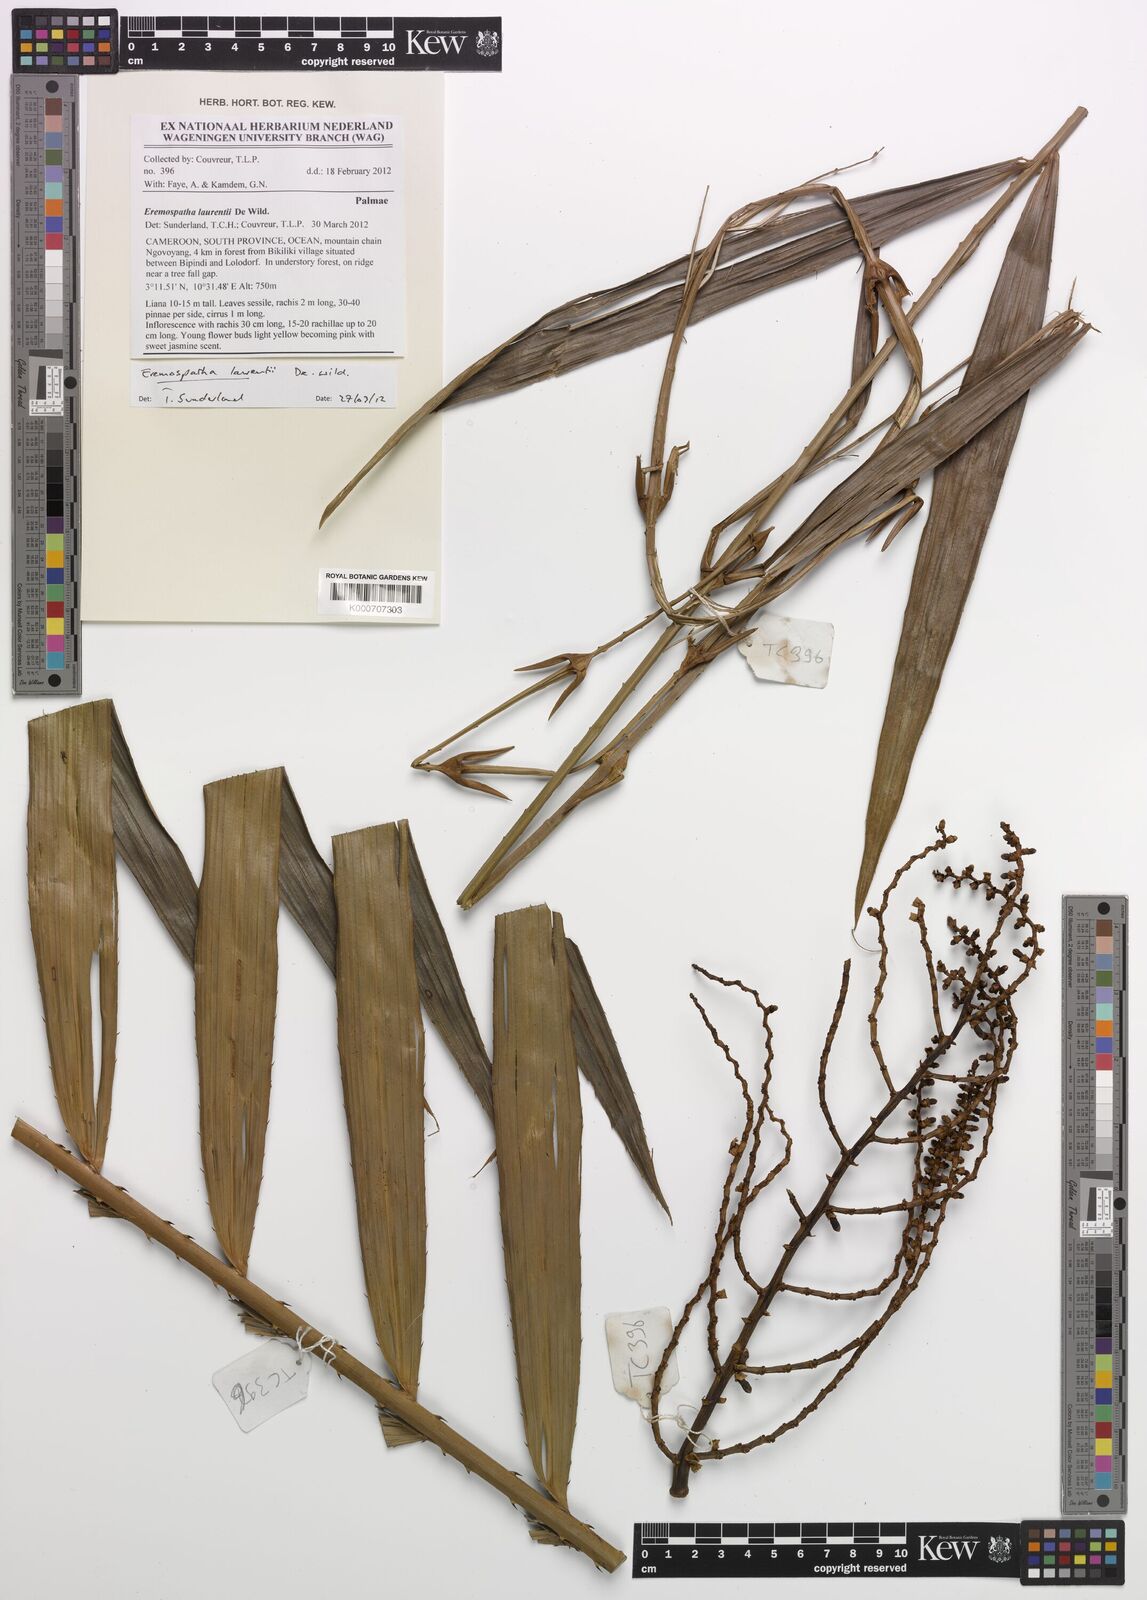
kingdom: Plantae
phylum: Tracheophyta
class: Liliopsida
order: Arecales
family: Arecaceae
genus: Eremospatha
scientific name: Eremospatha laurentii
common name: Rattan palm
